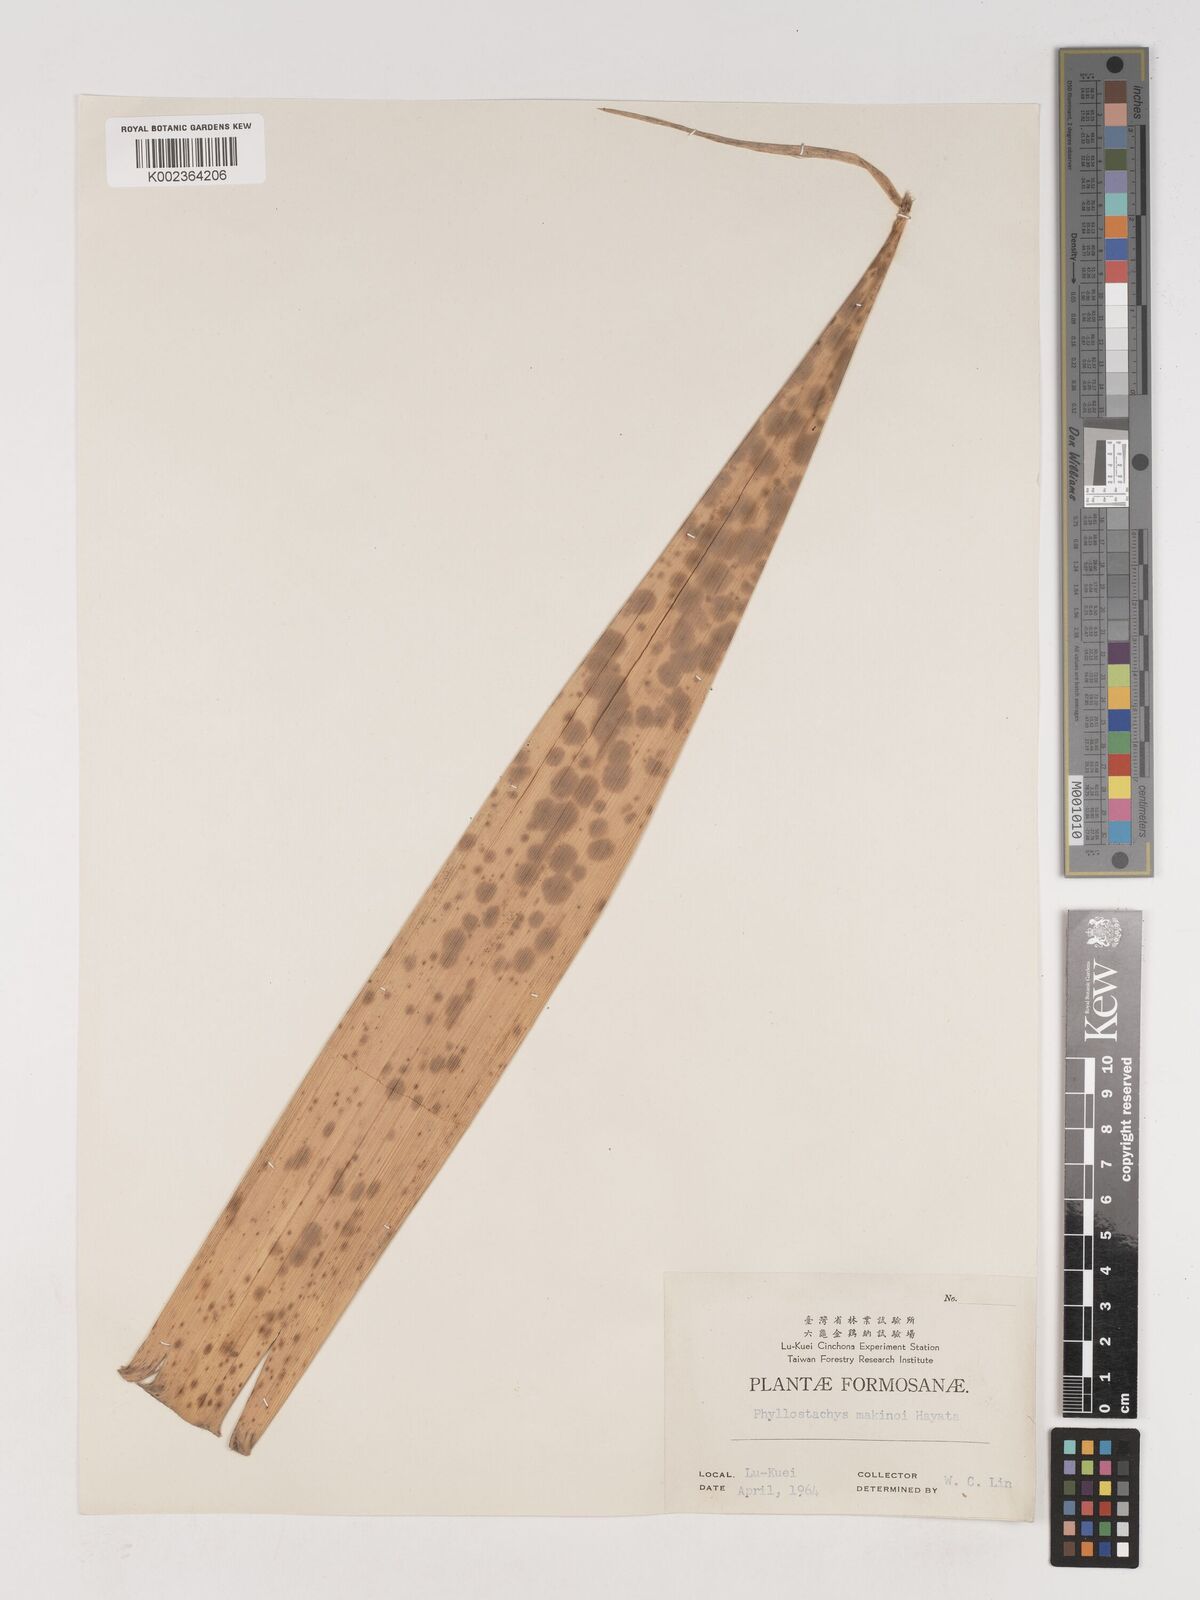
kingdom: Plantae
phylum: Tracheophyta
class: Liliopsida
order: Poales
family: Poaceae
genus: Phyllostachys
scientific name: Phyllostachys makinoi
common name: Makino bamboo
